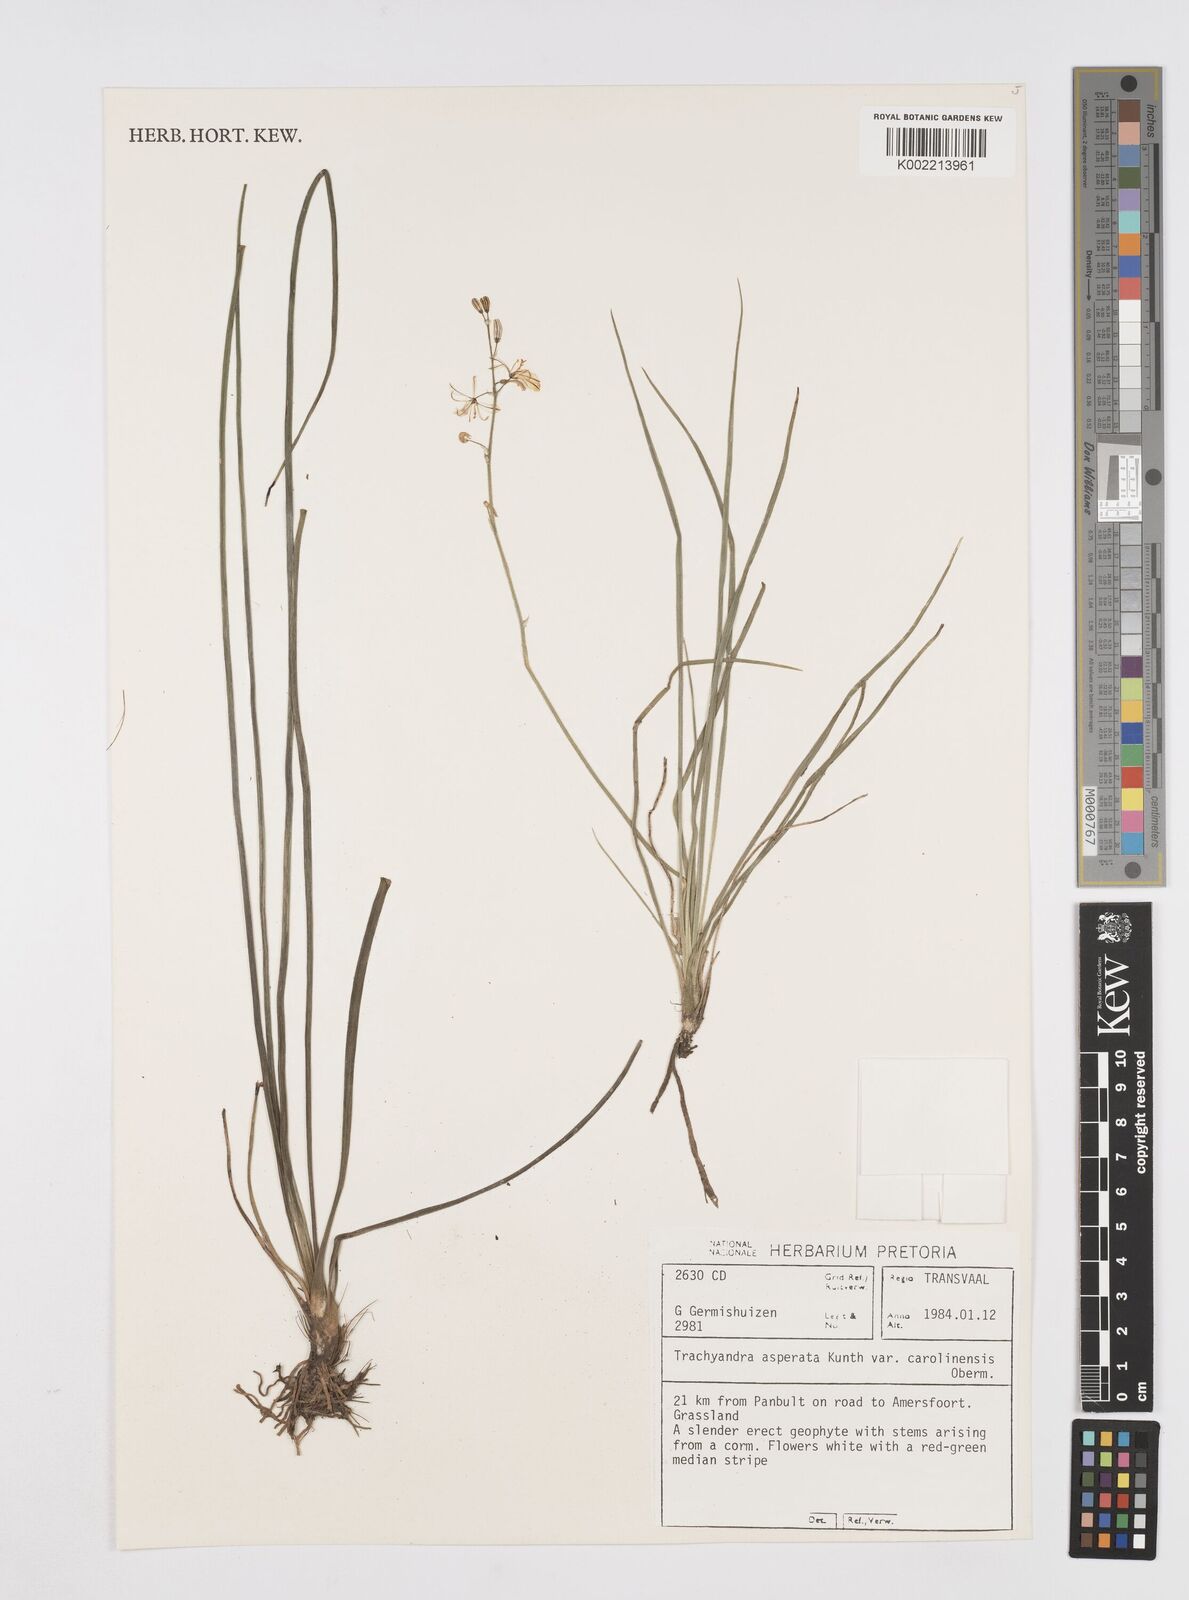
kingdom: Plantae
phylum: Tracheophyta
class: Liliopsida
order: Asparagales
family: Asphodelaceae
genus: Trachyandra
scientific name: Trachyandra asperata
